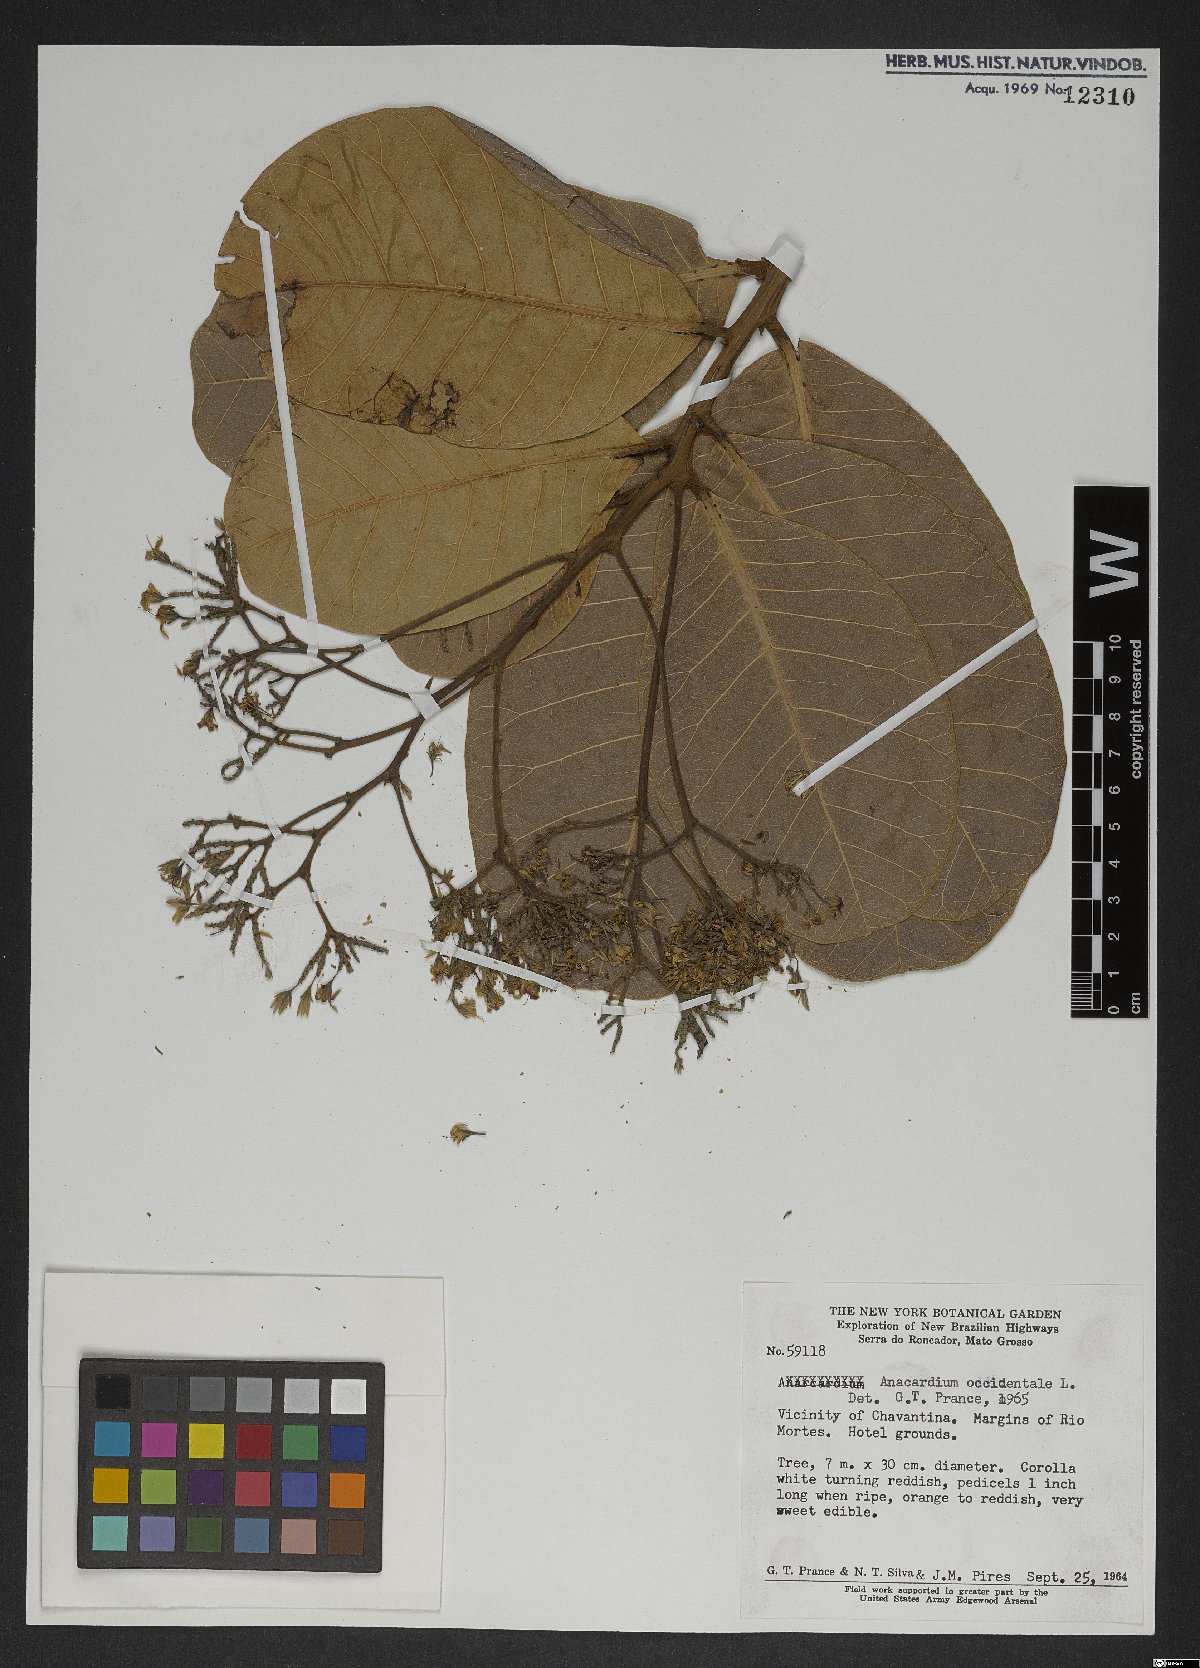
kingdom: Plantae
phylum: Tracheophyta
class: Magnoliopsida
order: Sapindales
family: Anacardiaceae
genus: Anacardium
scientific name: Anacardium occidentale
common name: Cashew
